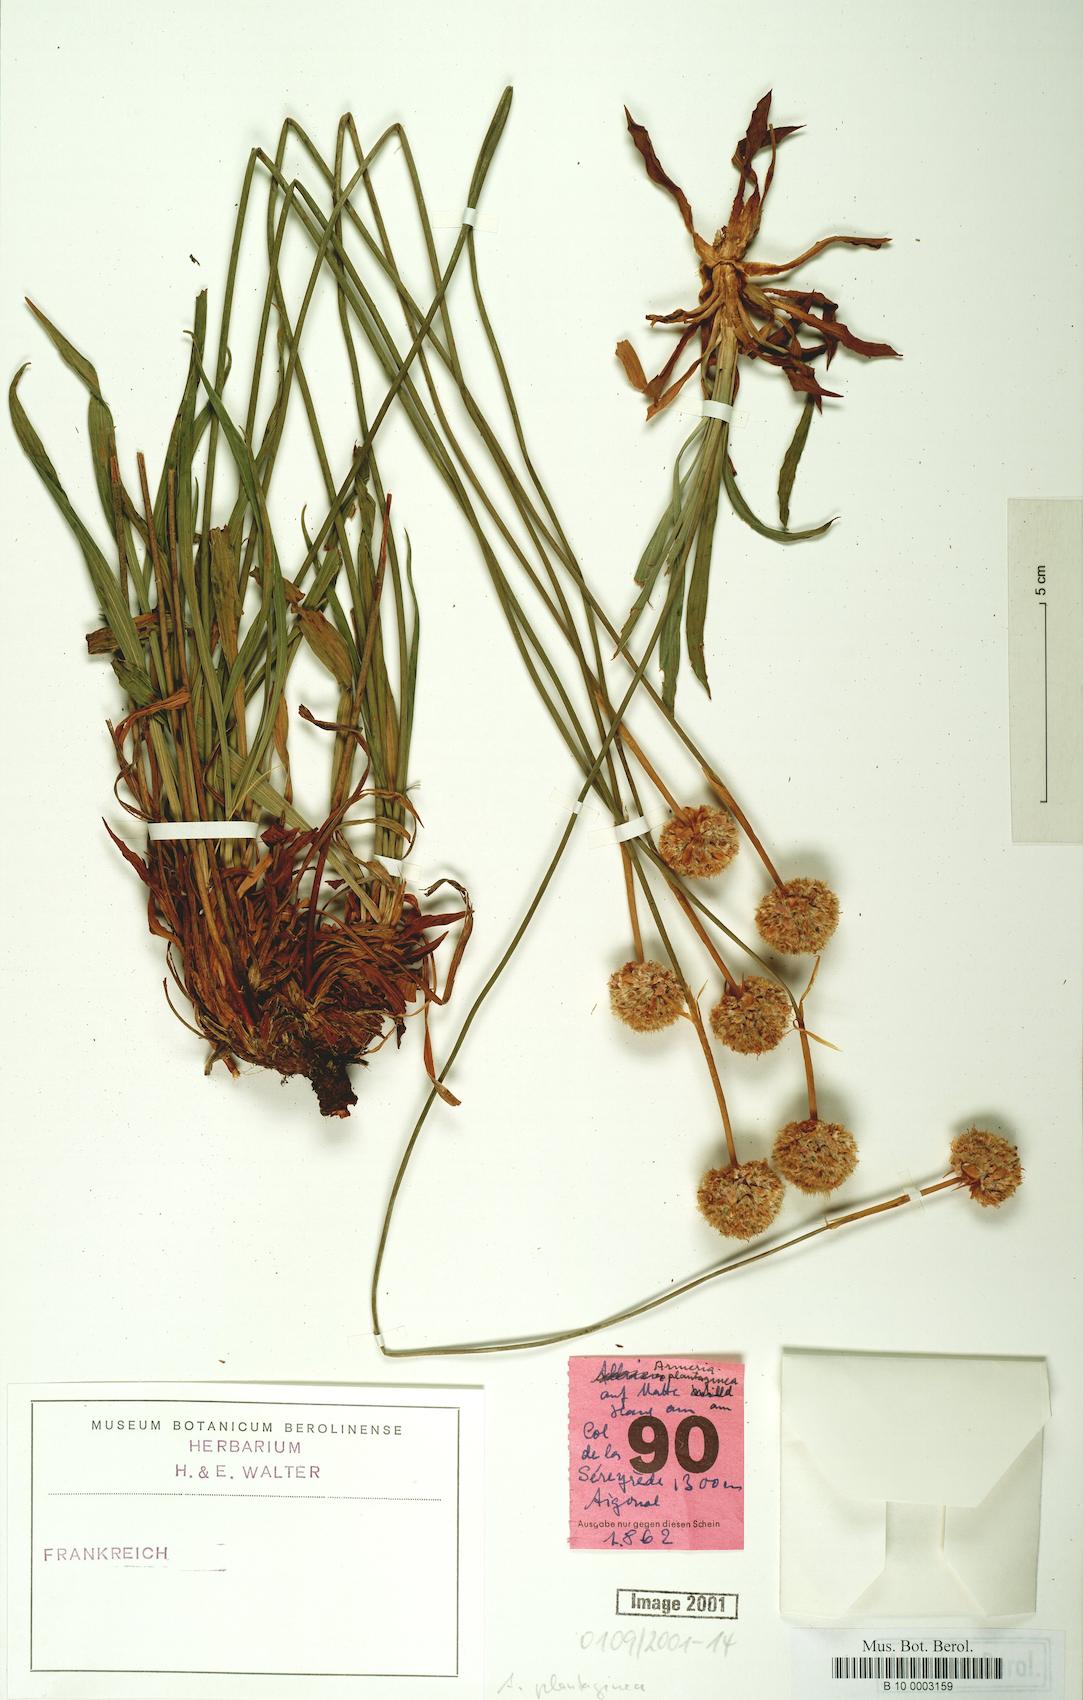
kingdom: Plantae
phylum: Tracheophyta
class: Magnoliopsida
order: Caryophyllales
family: Plumbaginaceae
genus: Armeria
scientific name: Armeria alliacea
